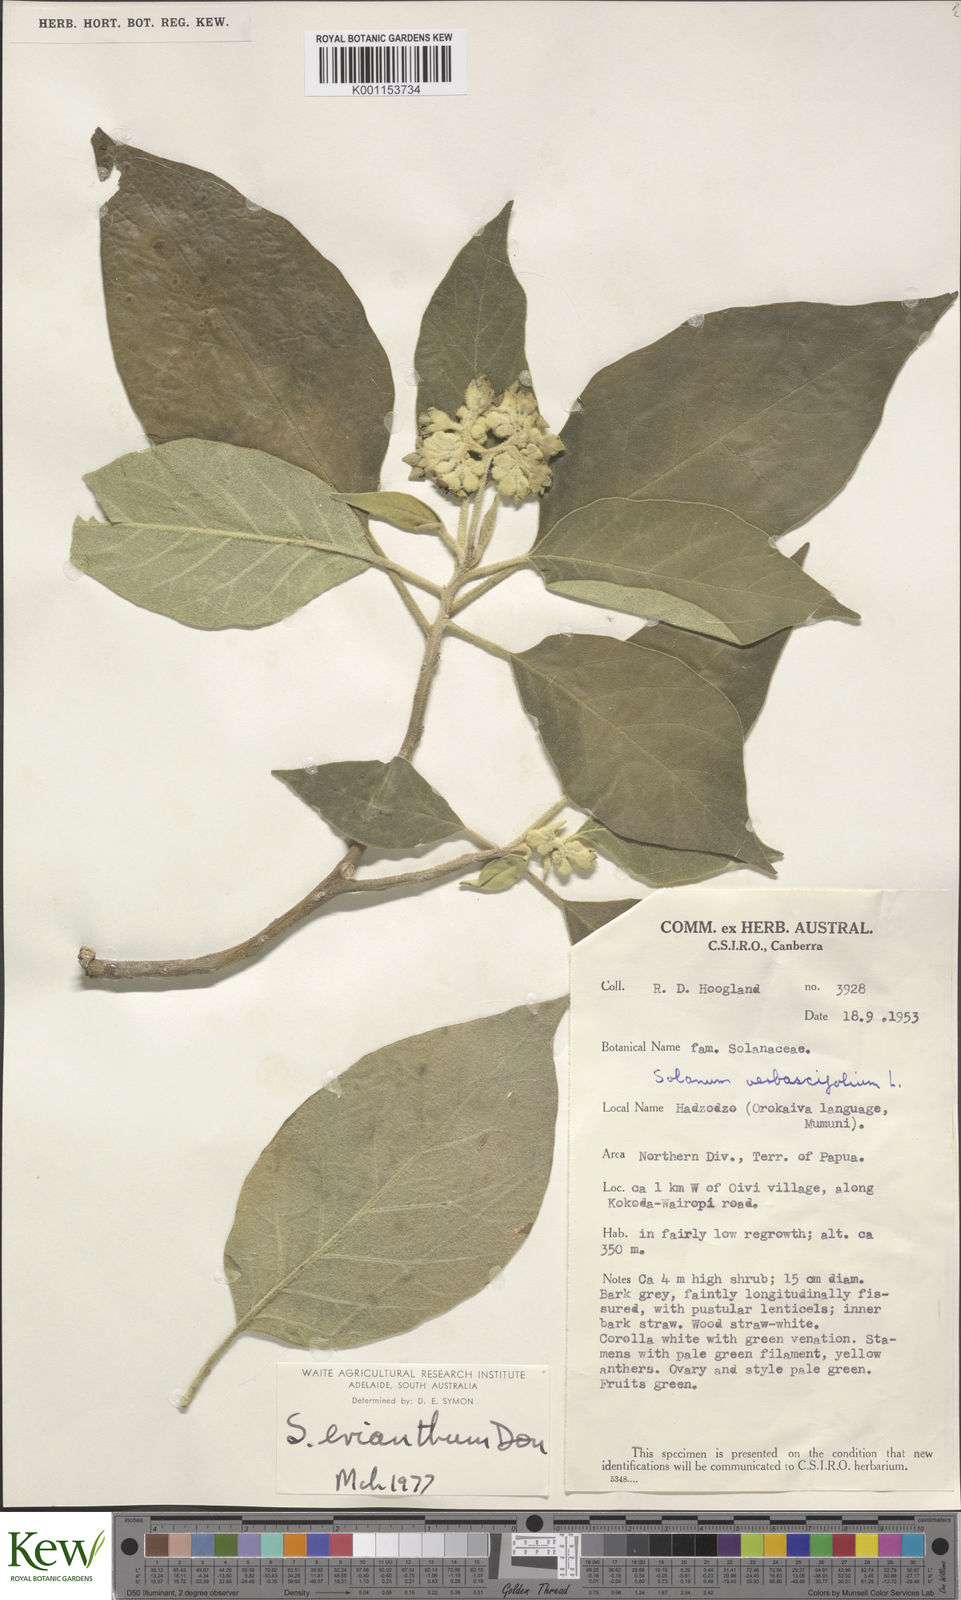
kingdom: Plantae
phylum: Tracheophyta
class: Magnoliopsida
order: Solanales
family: Solanaceae
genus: Solanum
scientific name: Solanum erianthum
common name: Tobacco-tree
